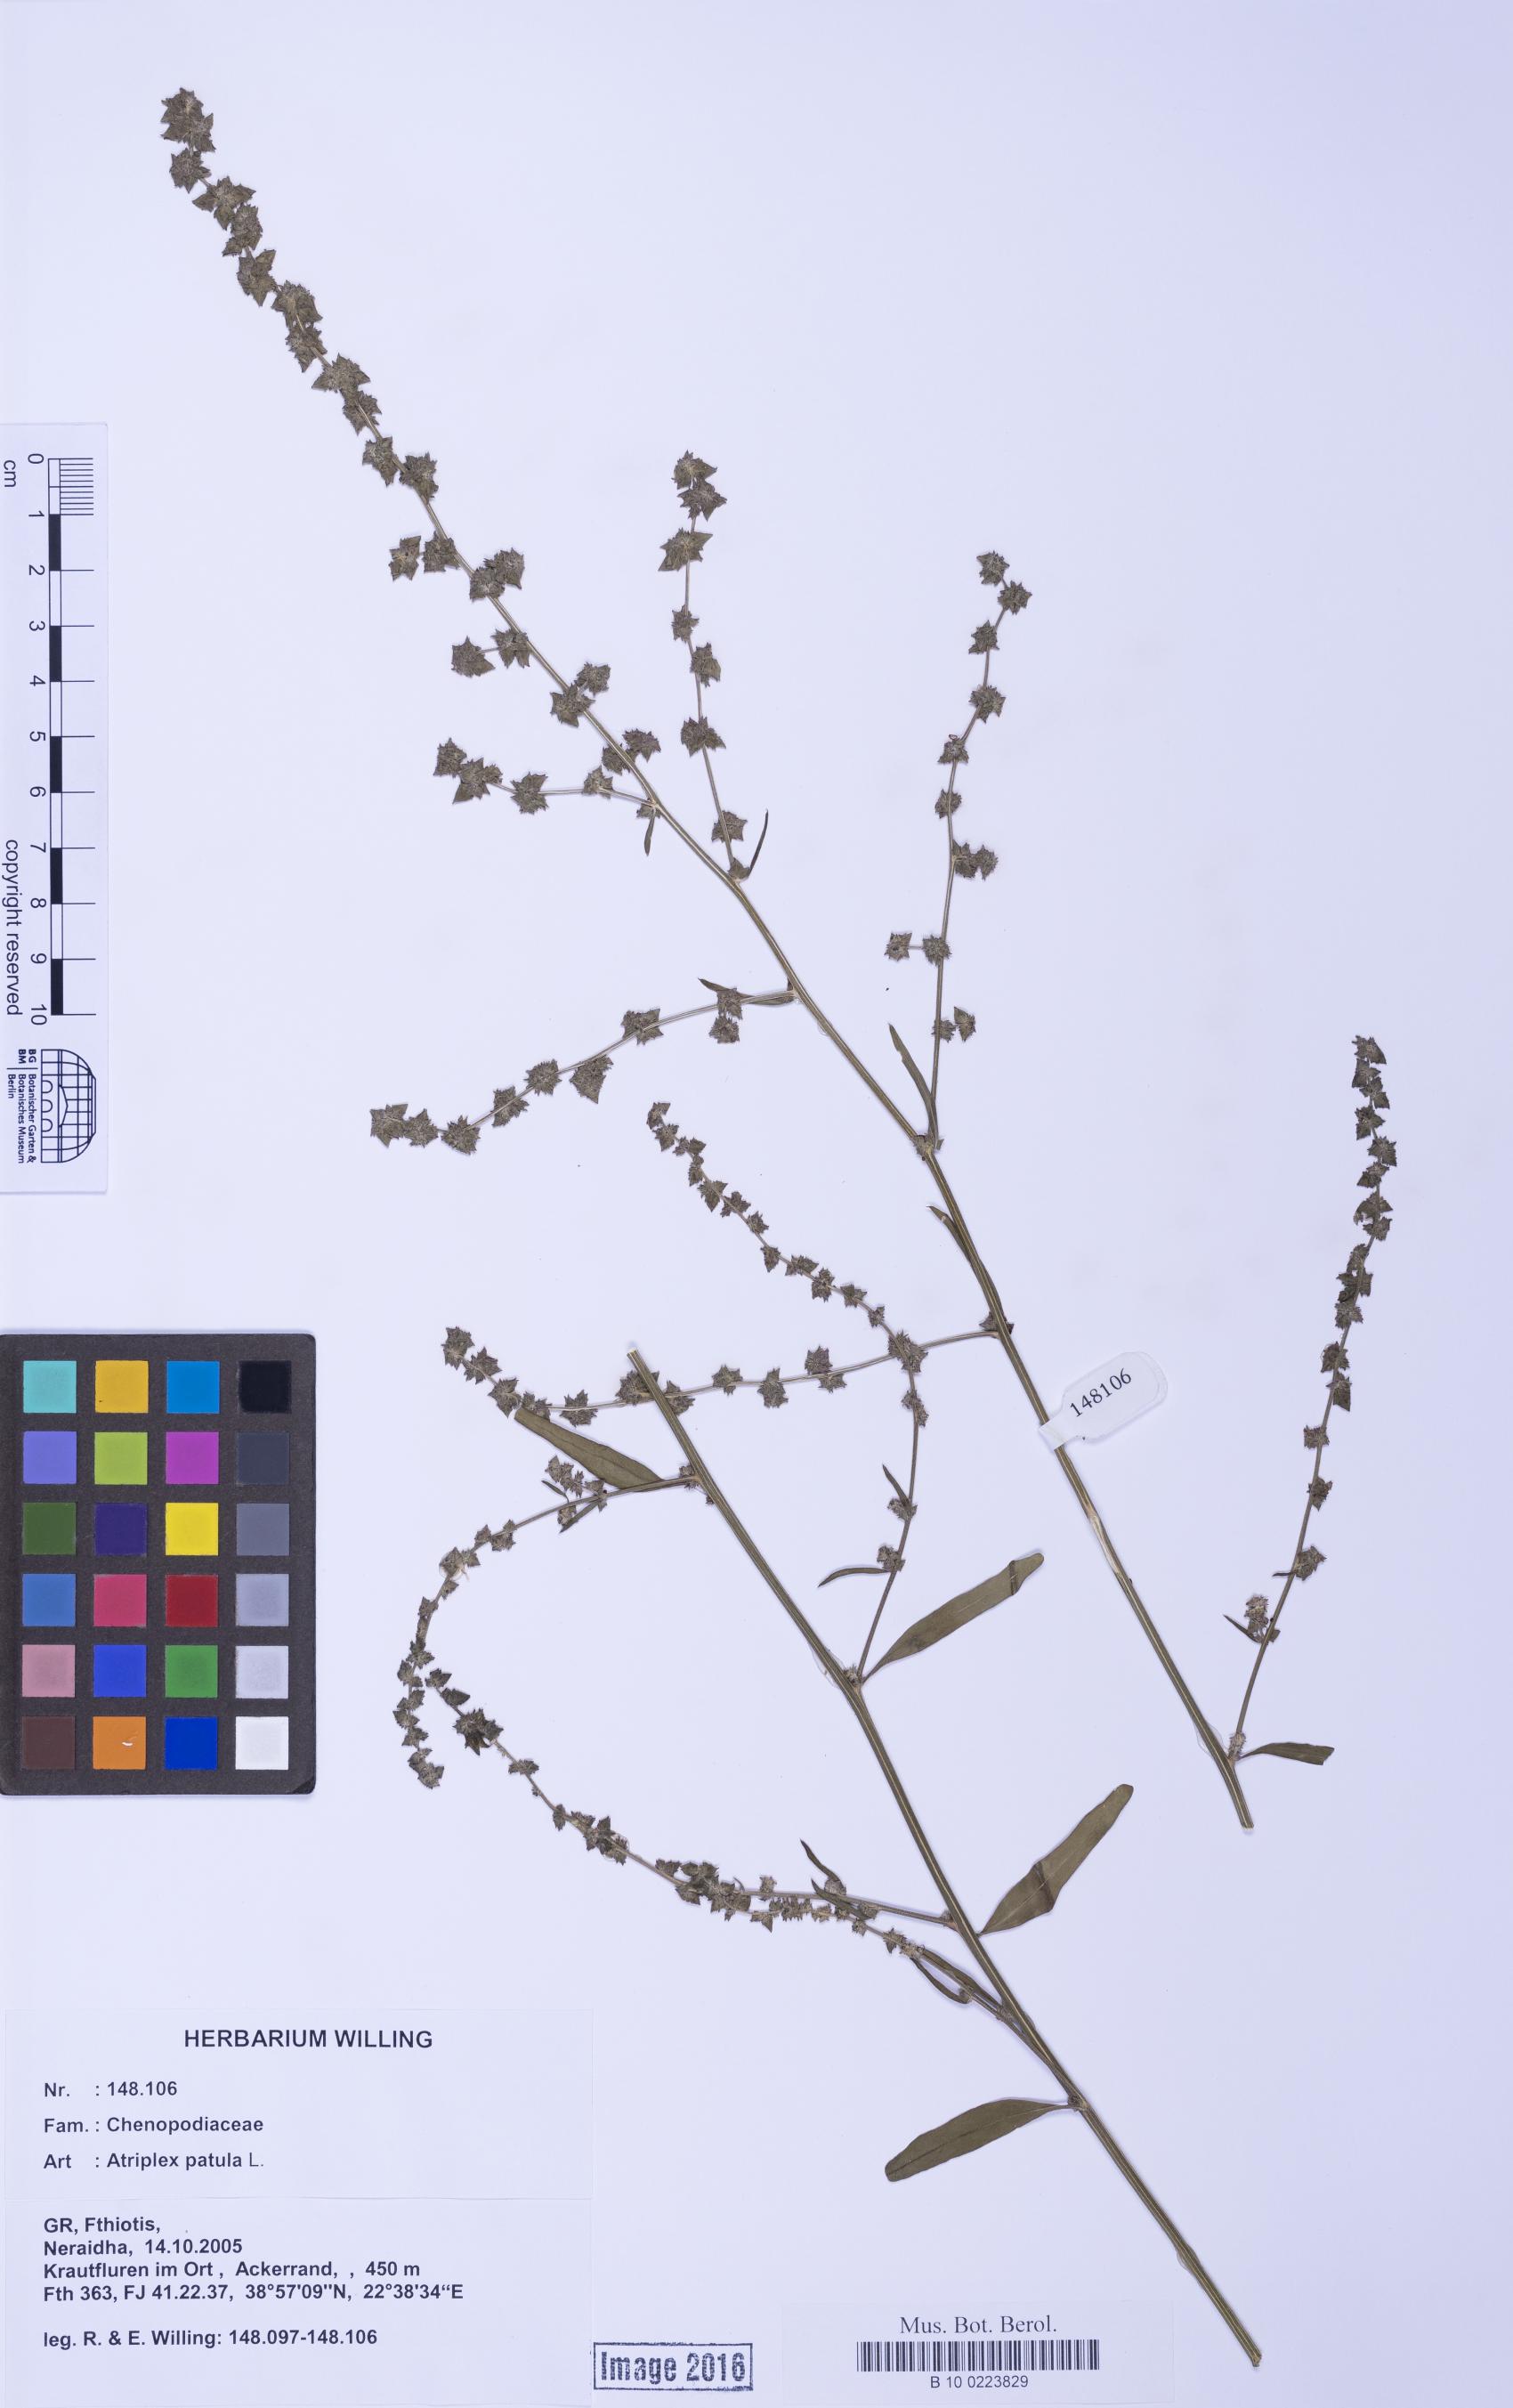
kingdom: Plantae
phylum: Tracheophyta
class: Magnoliopsida
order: Caryophyllales
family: Amaranthaceae
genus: Atriplex
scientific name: Atriplex patula
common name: Common orache
